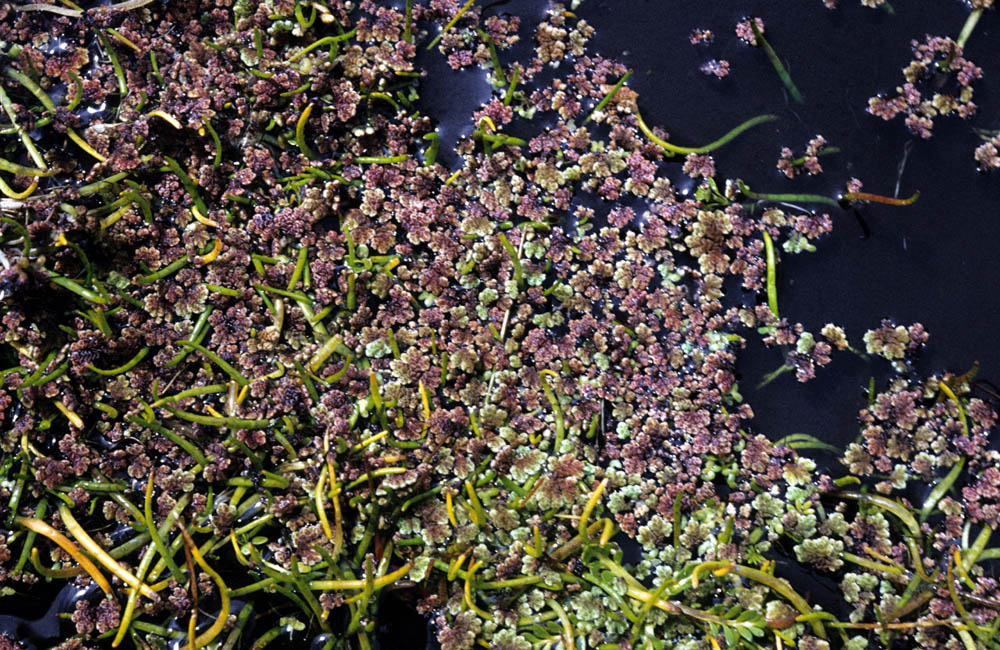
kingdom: Plantae
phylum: Tracheophyta
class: Liliopsida
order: Poales
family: Juncaceae
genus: Luzula
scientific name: Luzula racemosa
